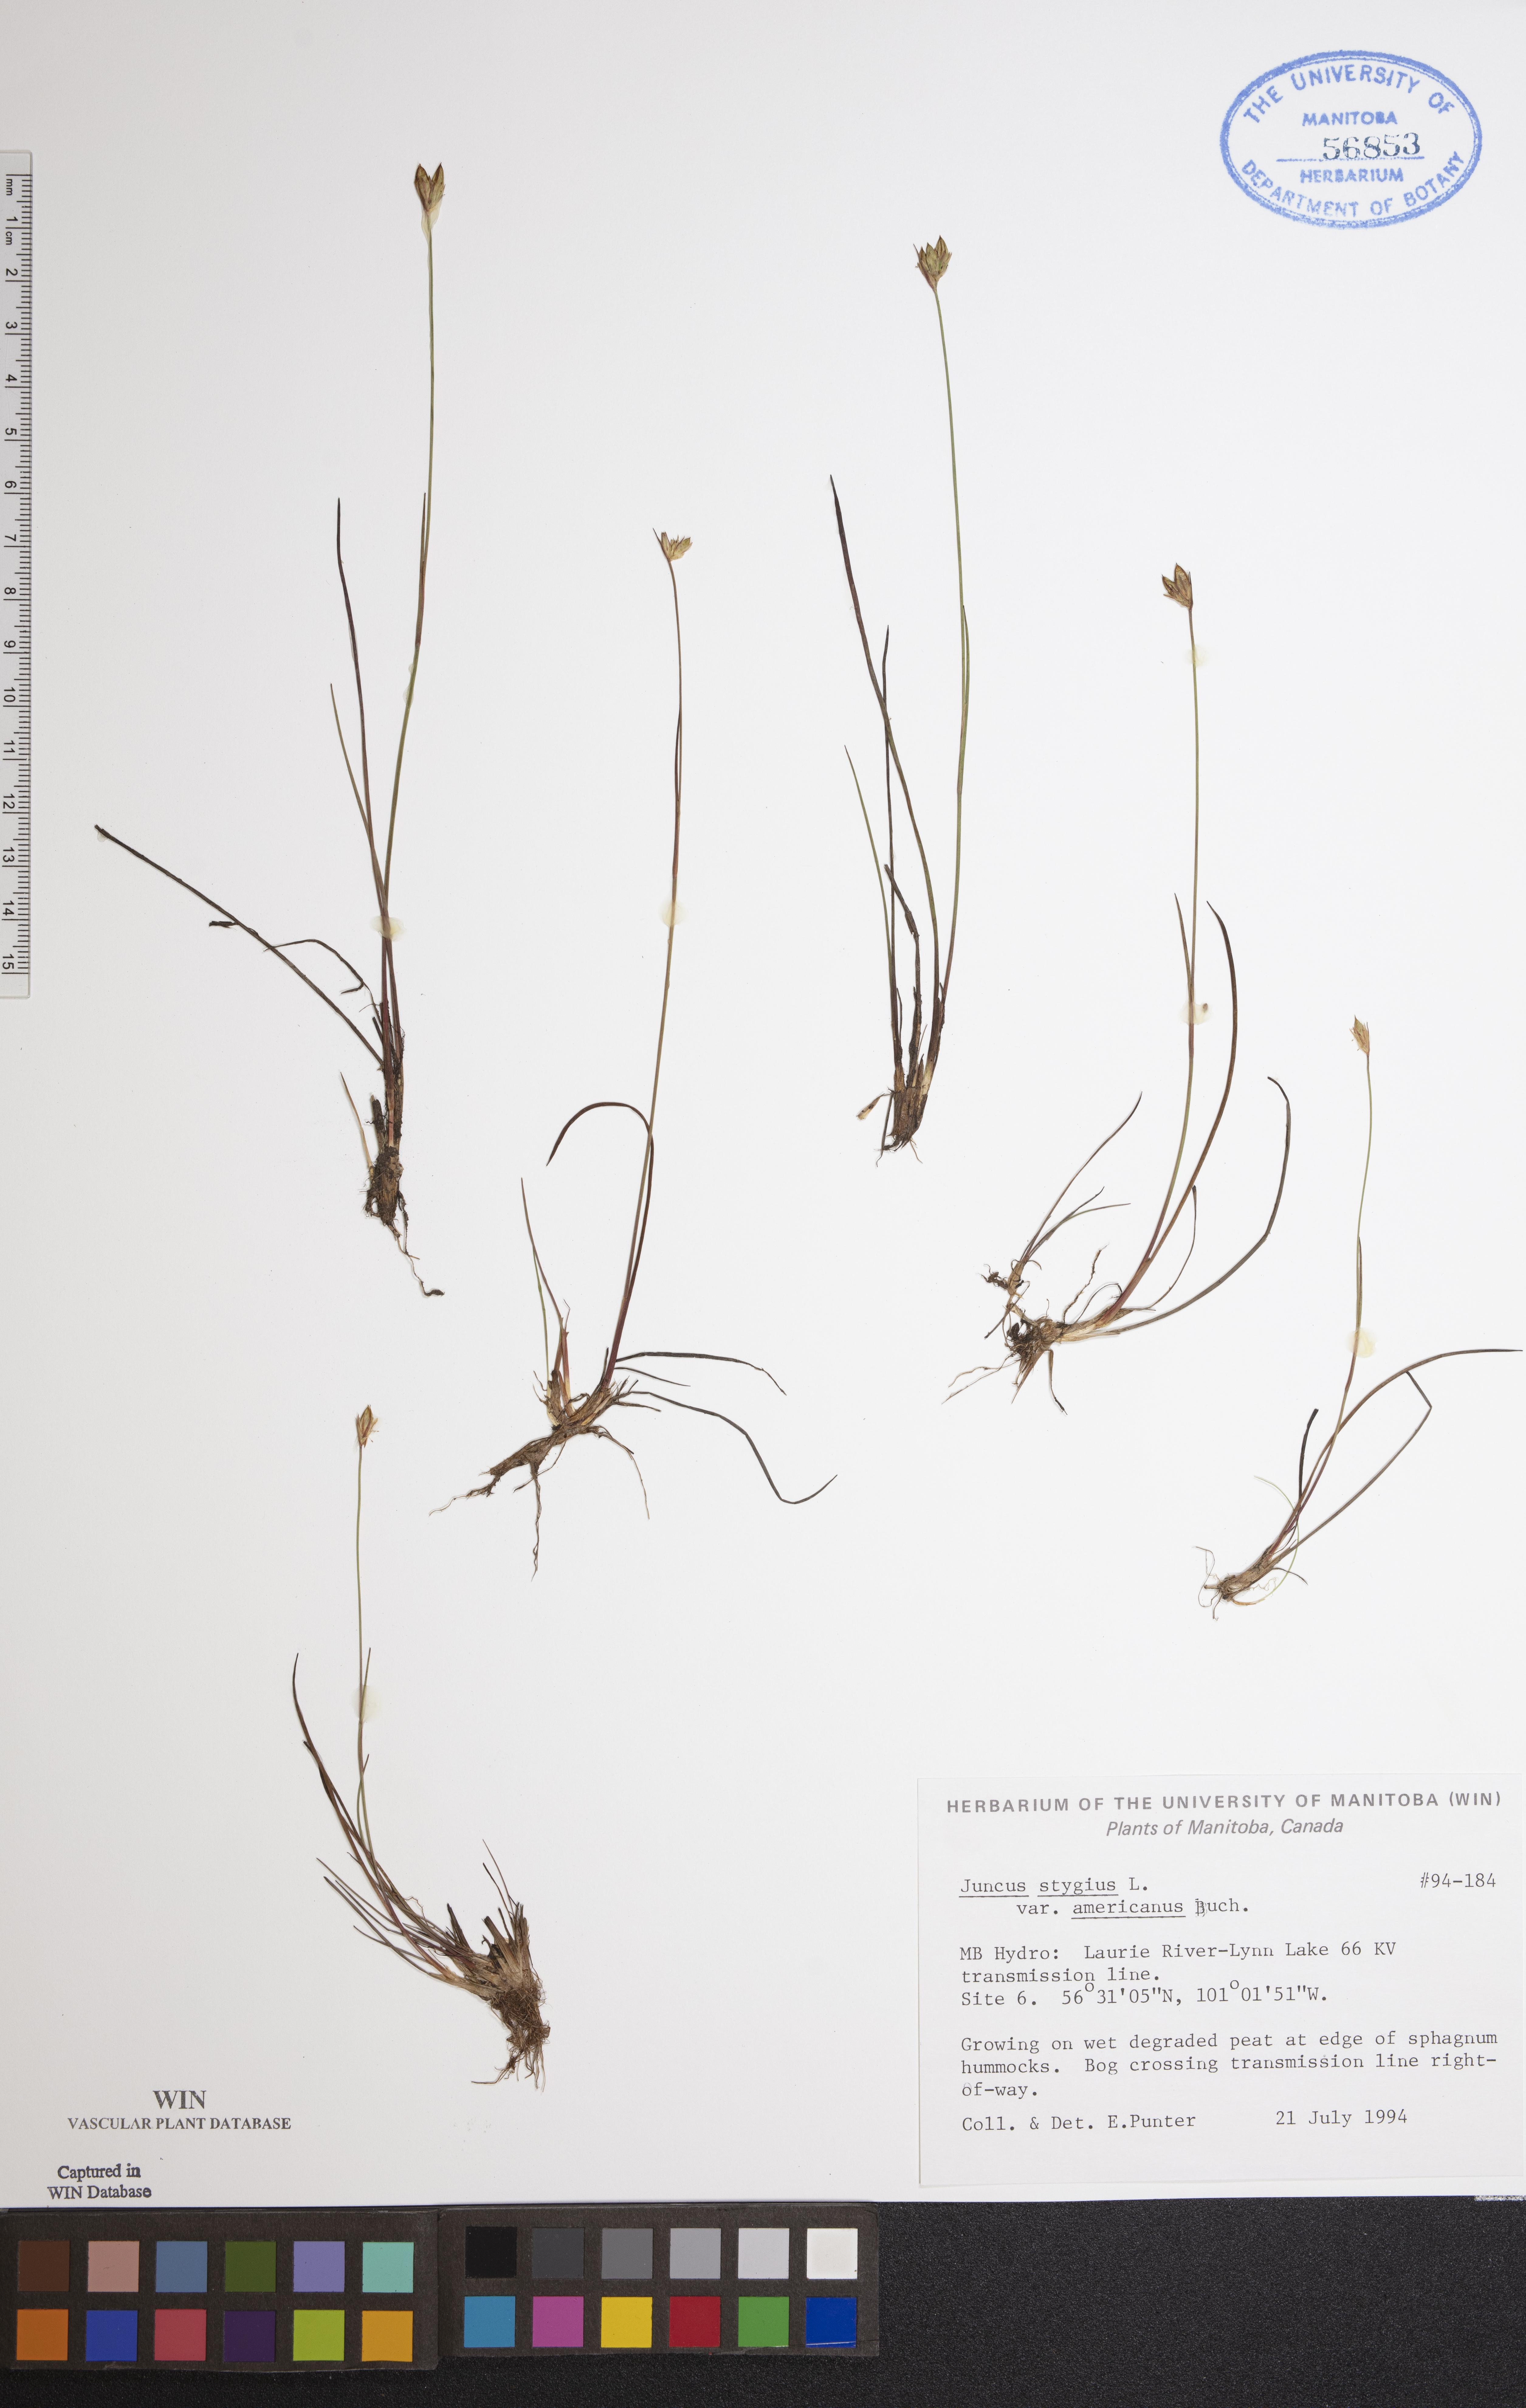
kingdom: Plantae
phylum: Tracheophyta
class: Liliopsida
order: Poales
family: Juncaceae
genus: Juncus
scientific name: Juncus stygius
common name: Bog rush
